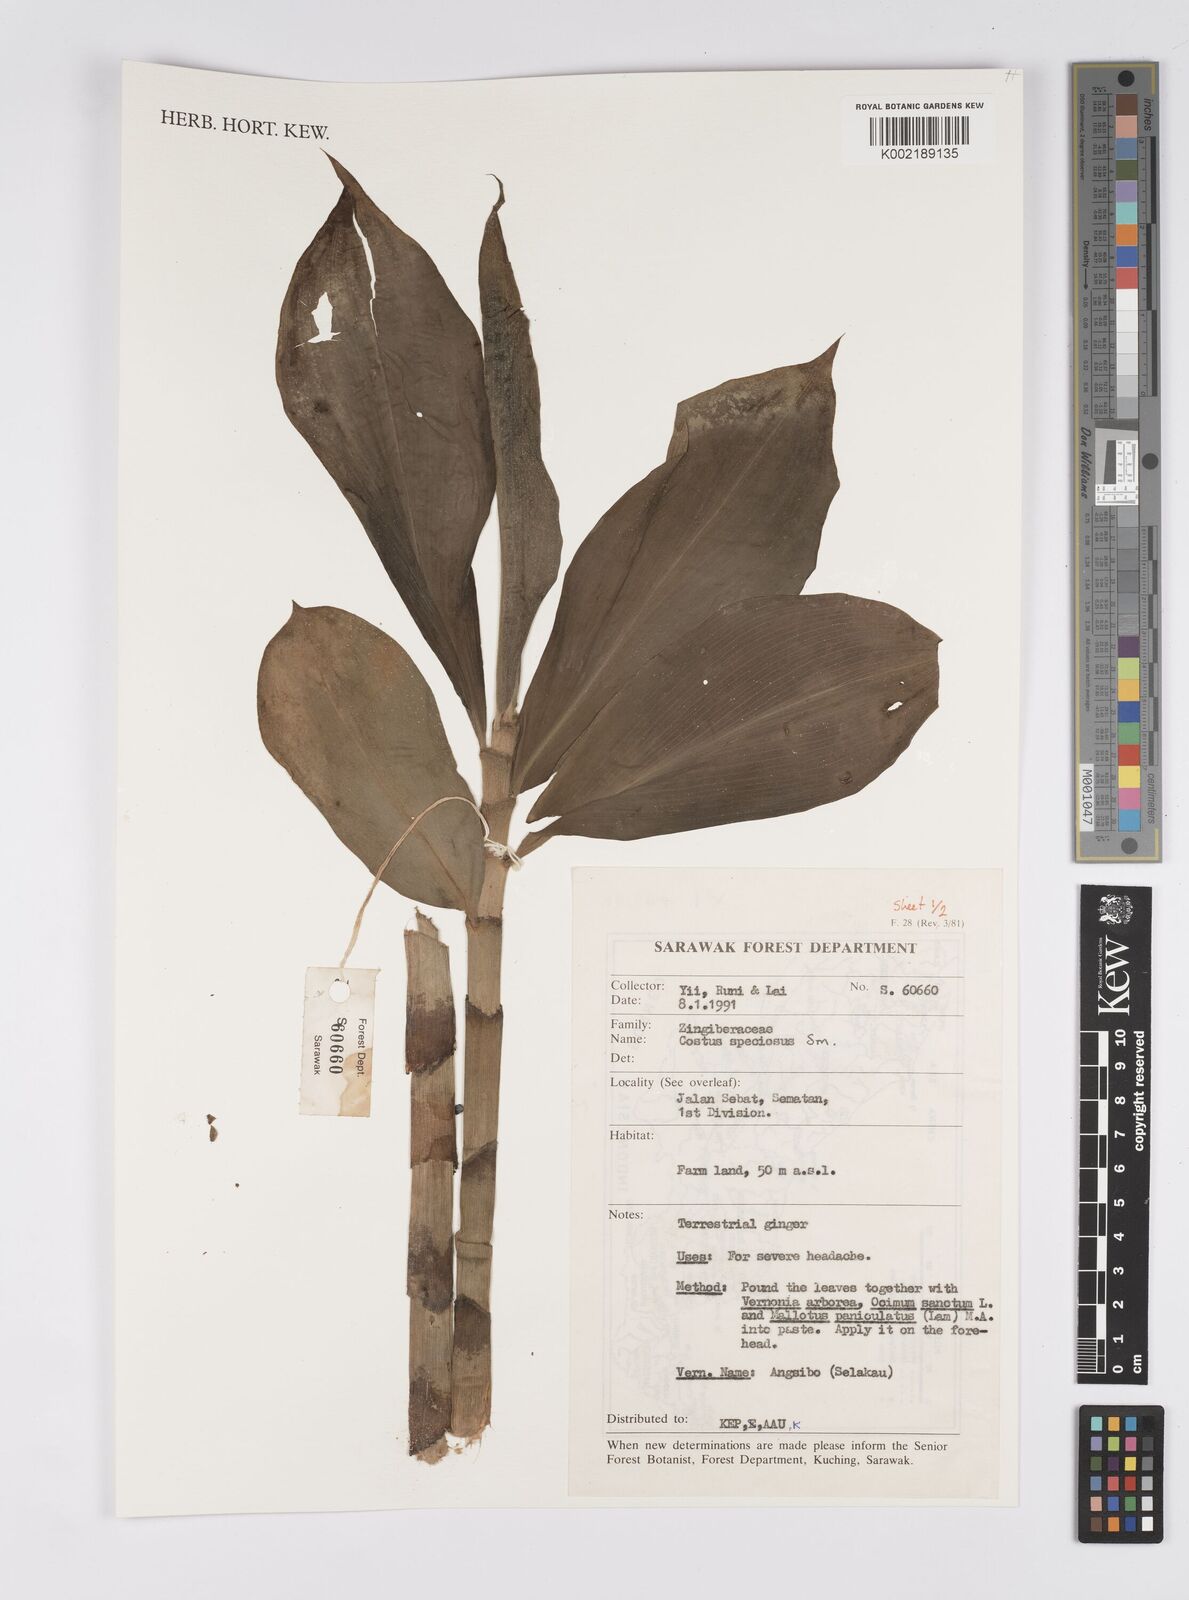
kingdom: Plantae
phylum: Tracheophyta
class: Liliopsida
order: Zingiberales
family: Costaceae
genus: Hellenia
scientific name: Hellenia speciosa
